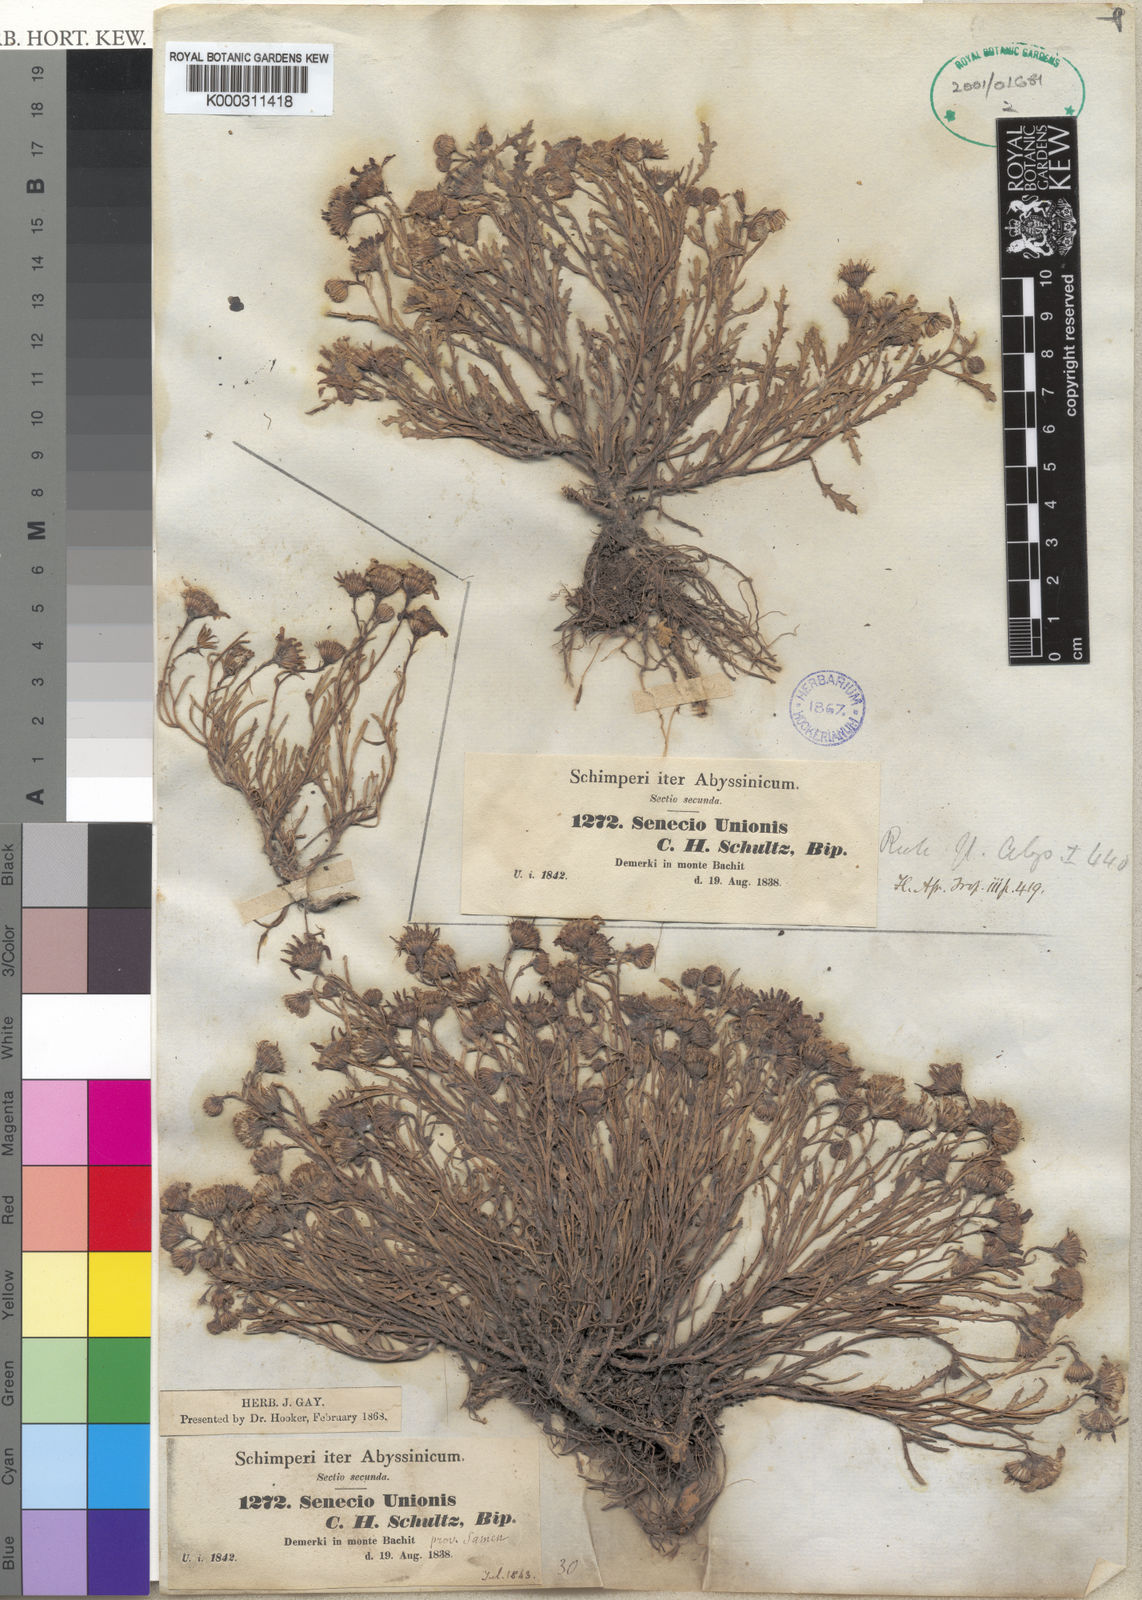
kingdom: Plantae
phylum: Tracheophyta
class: Magnoliopsida
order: Asterales
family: Asteraceae
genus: Senecio
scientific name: Senecio unionis
